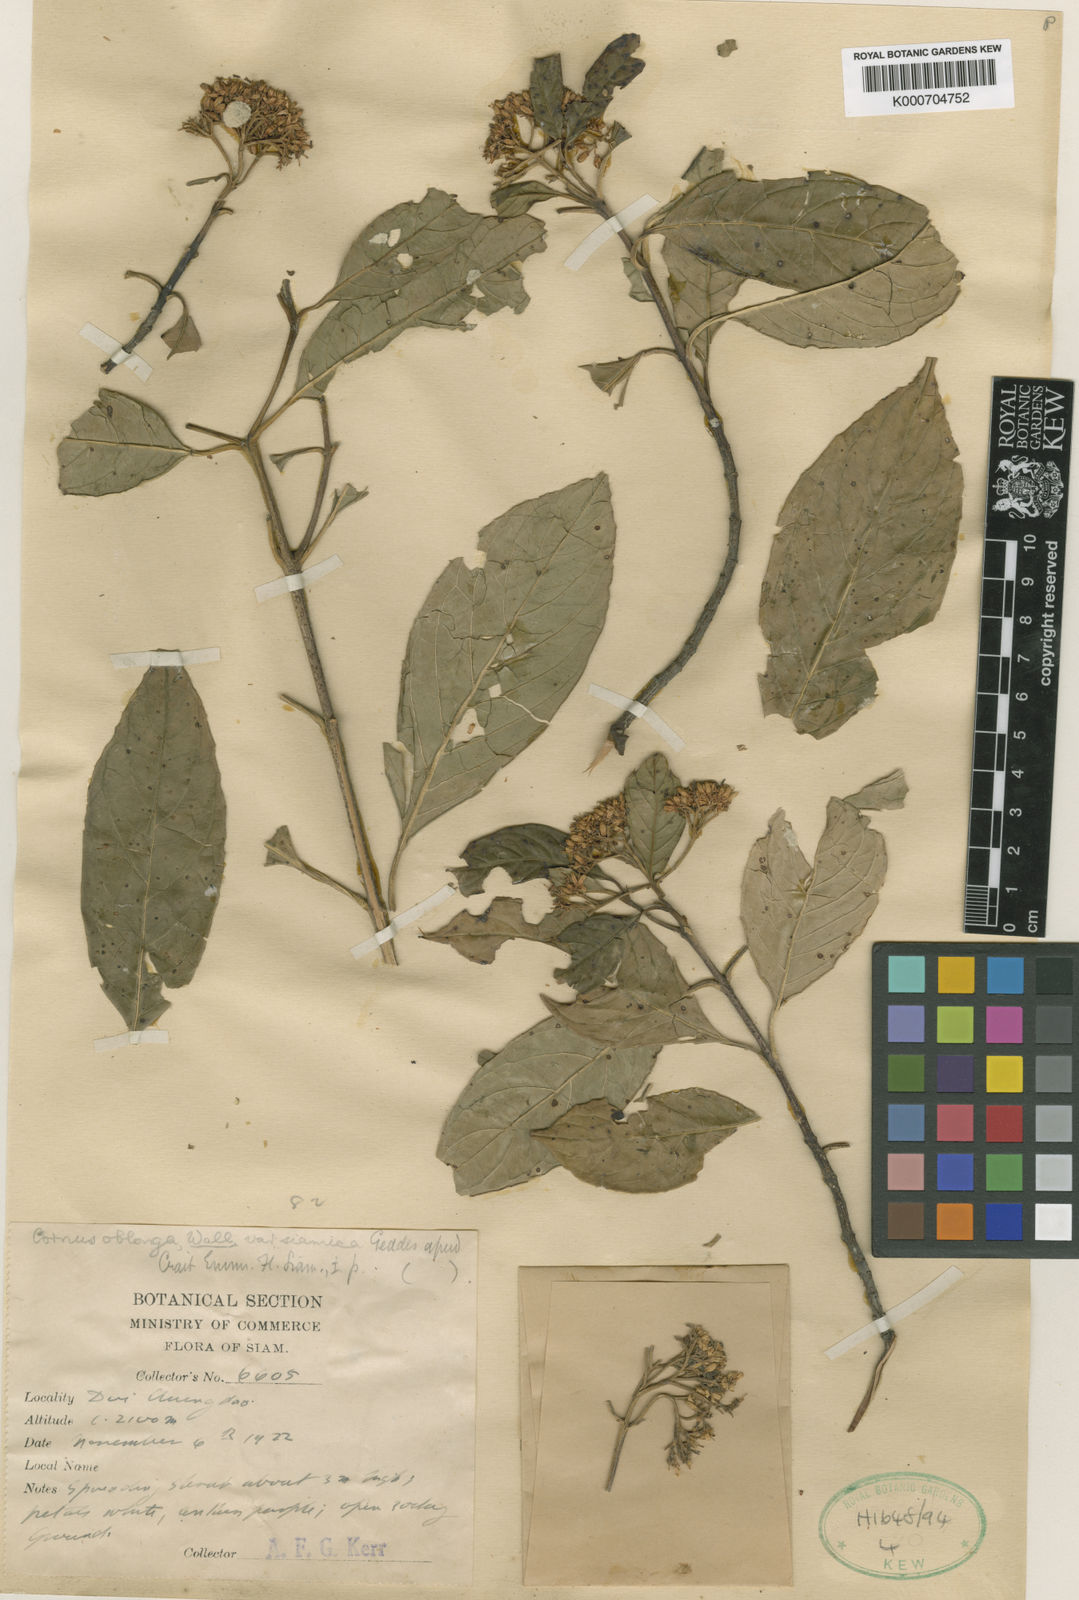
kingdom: Plantae
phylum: Tracheophyta
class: Magnoliopsida
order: Cornales
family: Cornaceae
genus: Cornus
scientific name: Cornus oblonga
